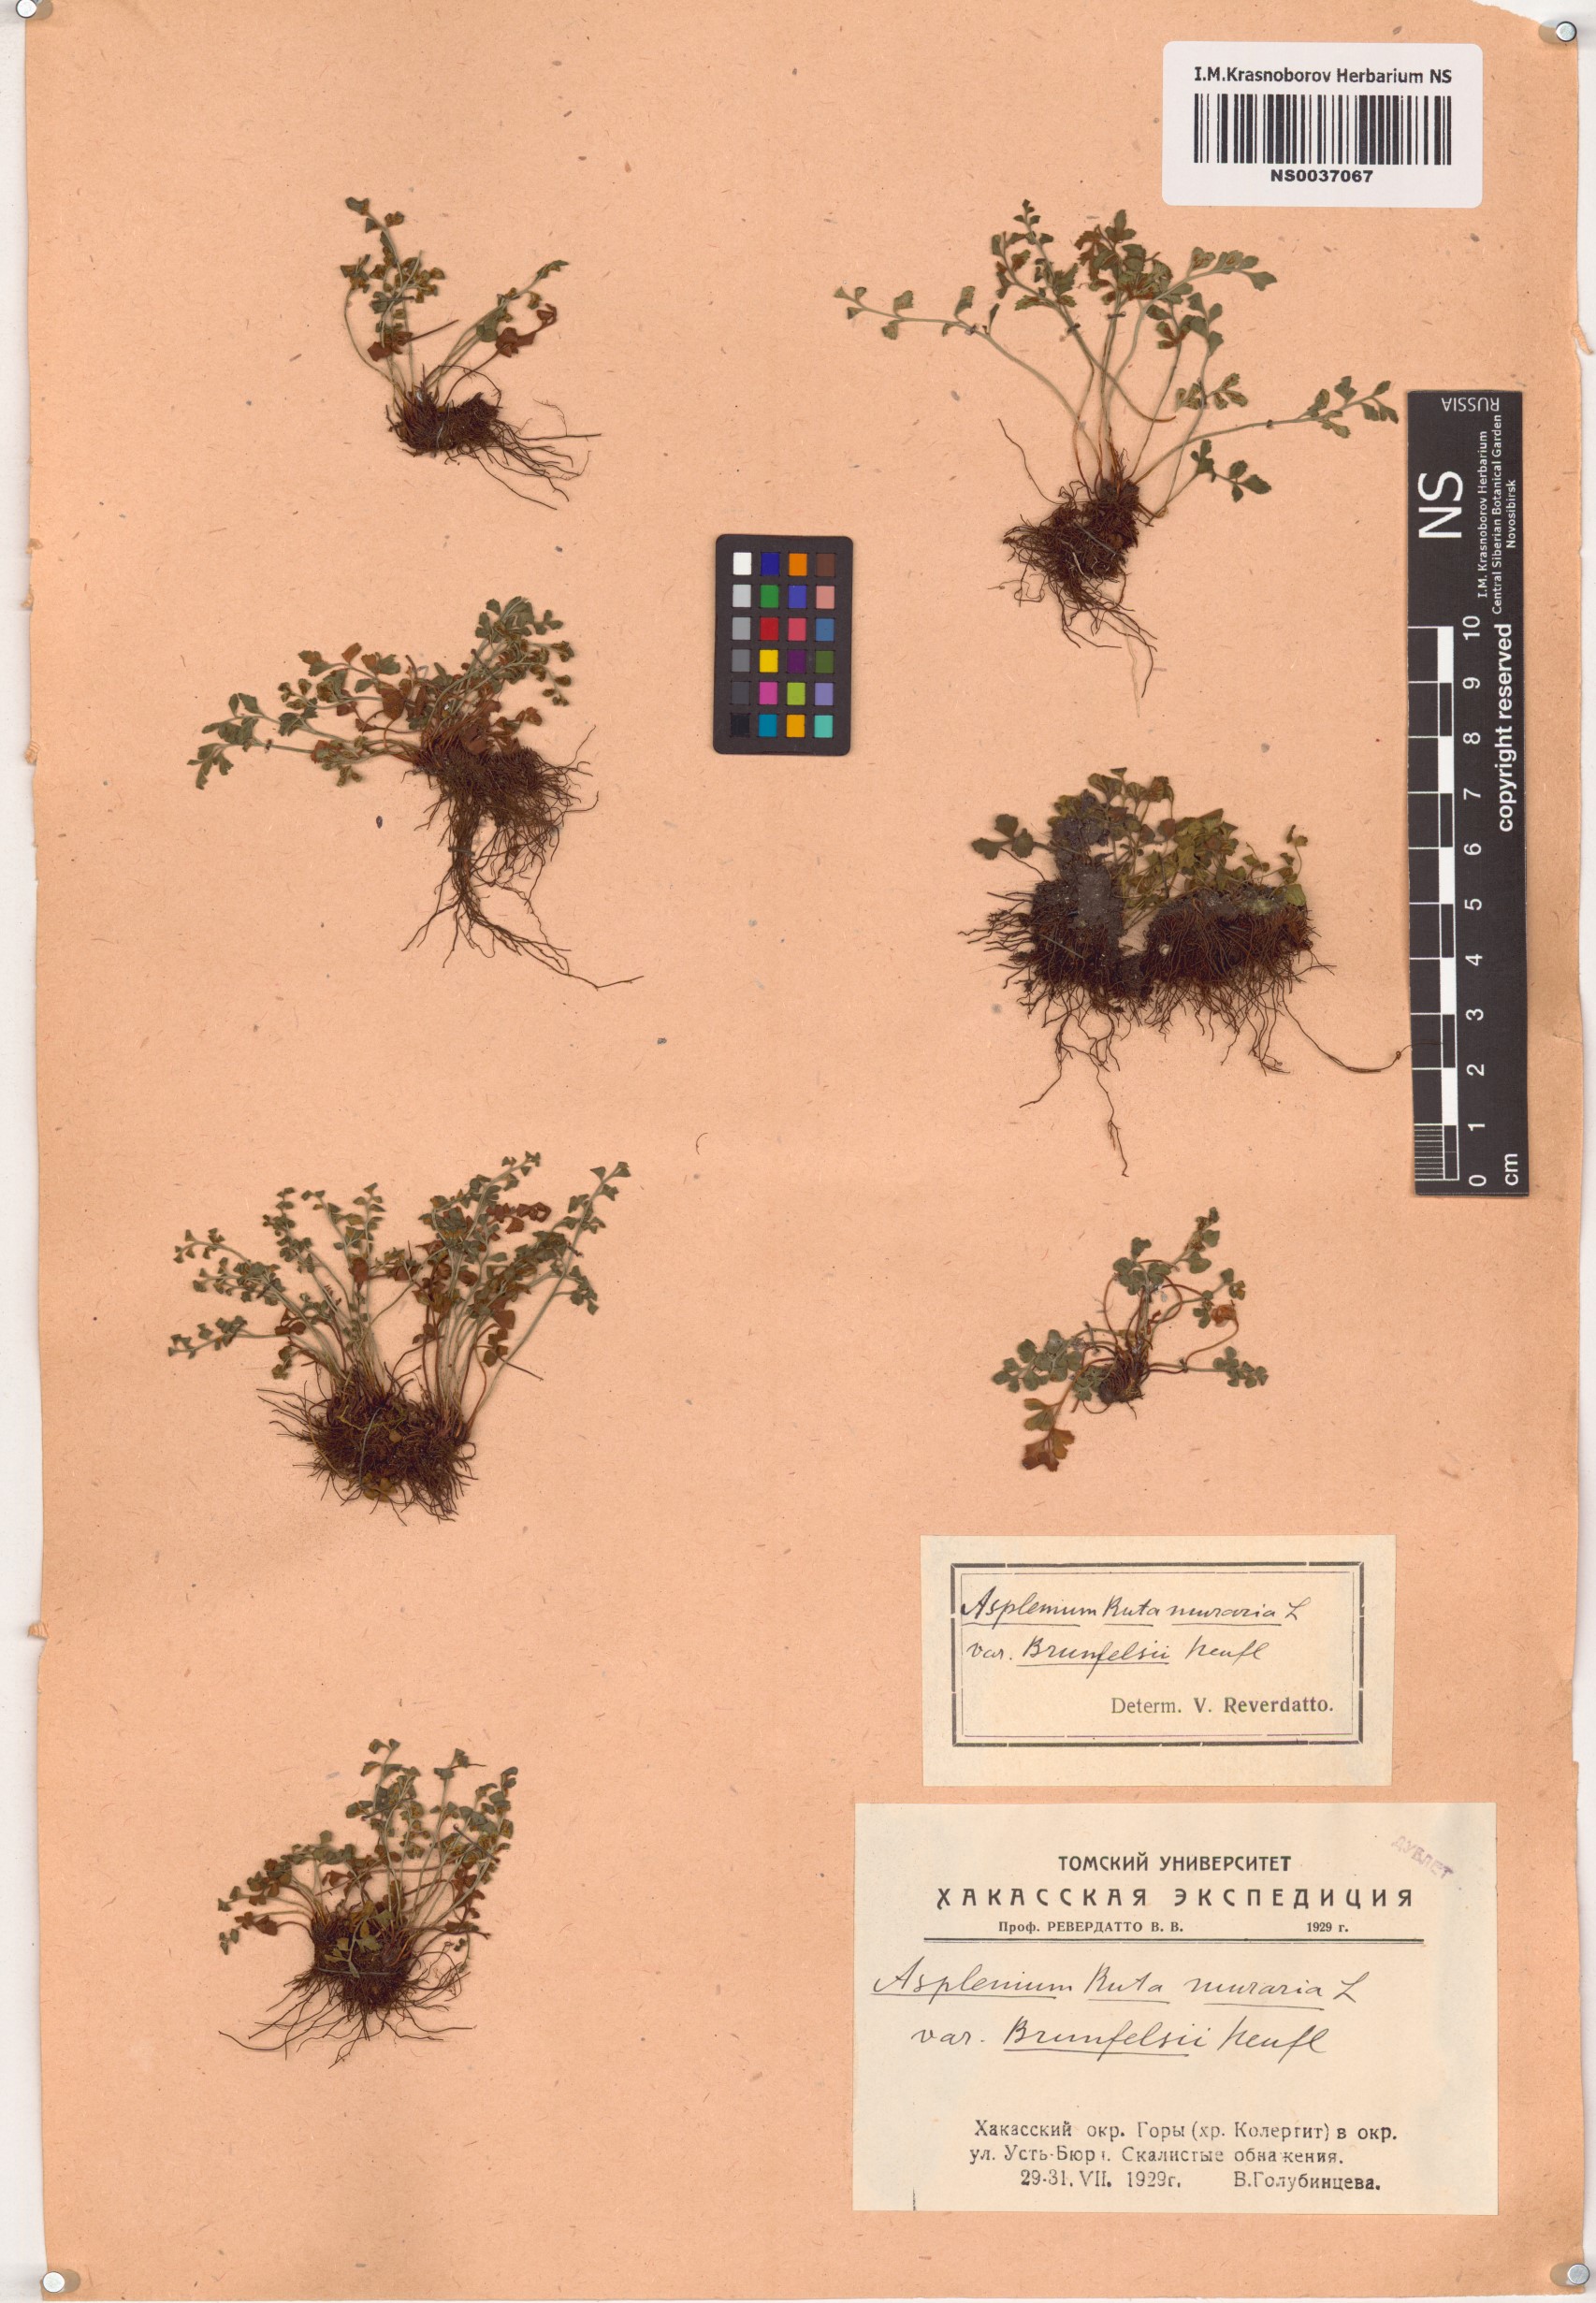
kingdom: Plantae
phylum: Tracheophyta
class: Polypodiopsida
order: Polypodiales
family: Aspleniaceae
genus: Asplenium
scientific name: Asplenium ruta-muraria
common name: Wall-rue
